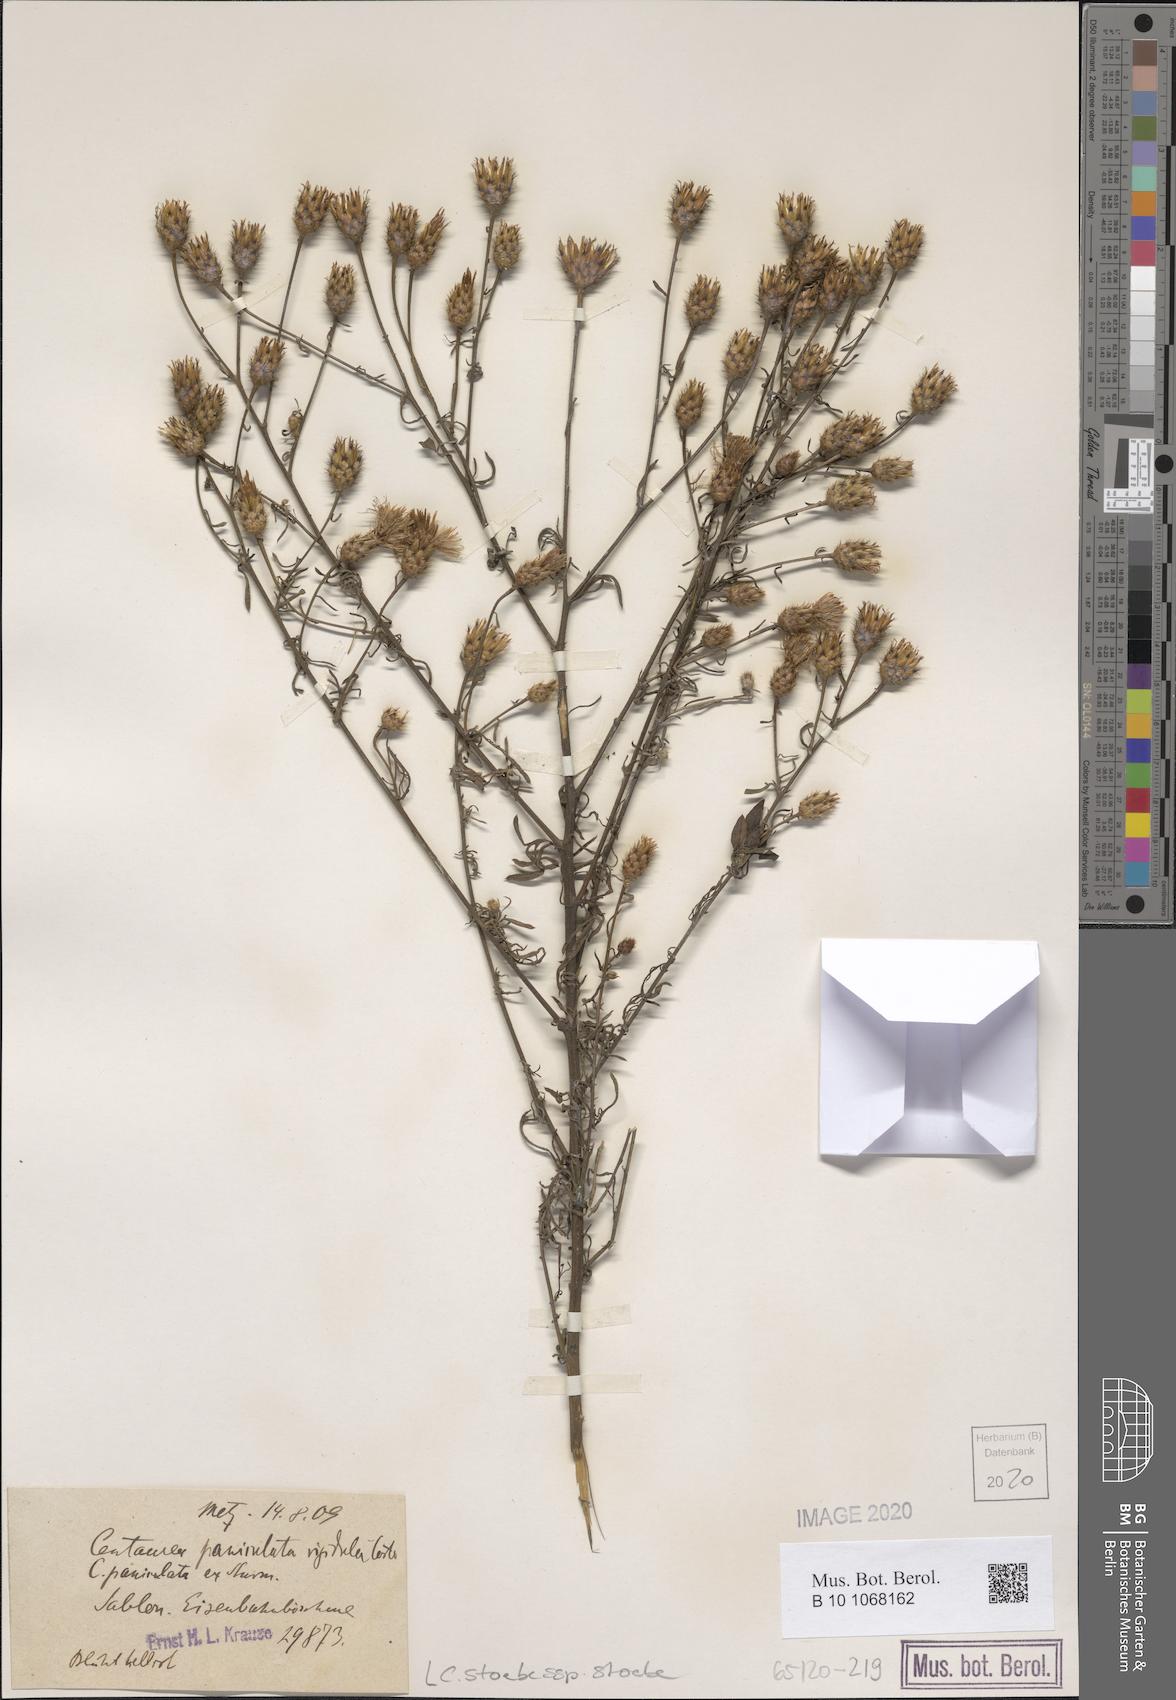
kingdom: Plantae
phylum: Tracheophyta
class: Magnoliopsida
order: Asterales
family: Asteraceae
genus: Centaurea
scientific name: Centaurea stoebe
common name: Spotted knapweed
